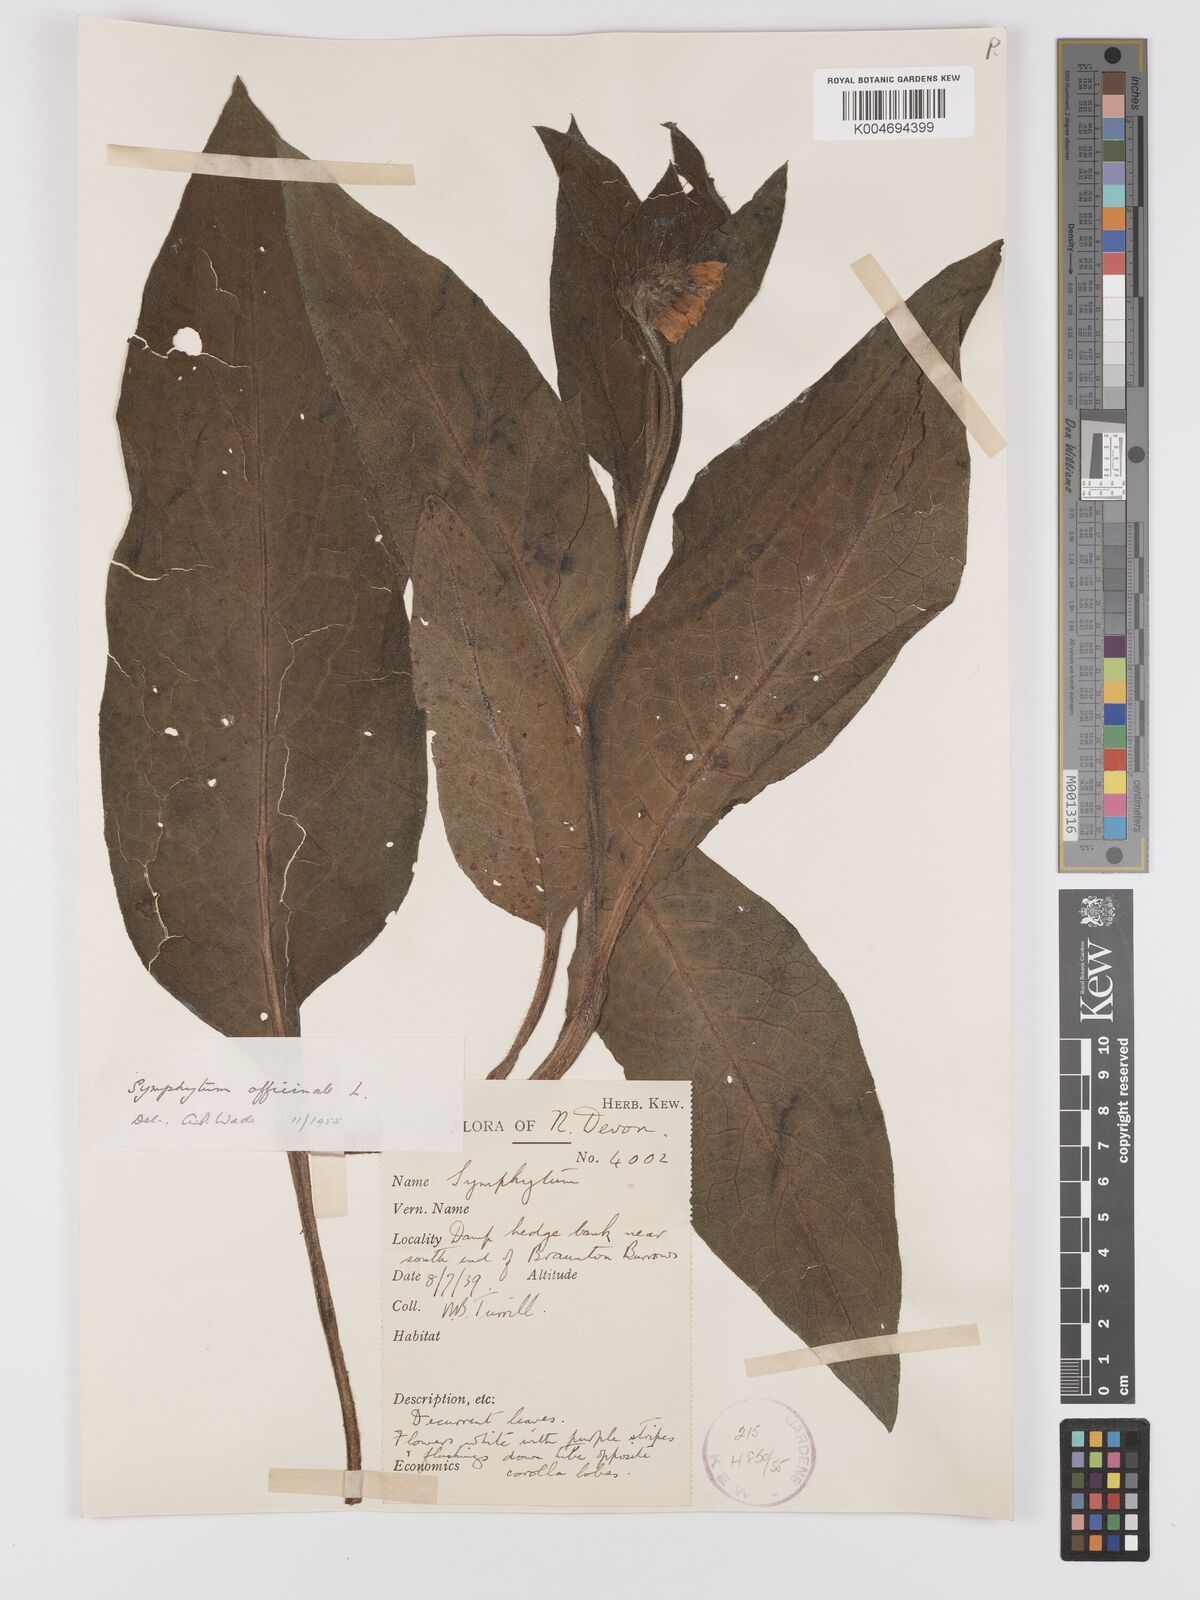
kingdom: Plantae
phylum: Tracheophyta
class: Magnoliopsida
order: Boraginales
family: Boraginaceae
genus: Symphytum
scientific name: Symphytum officinale
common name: Common comfrey
